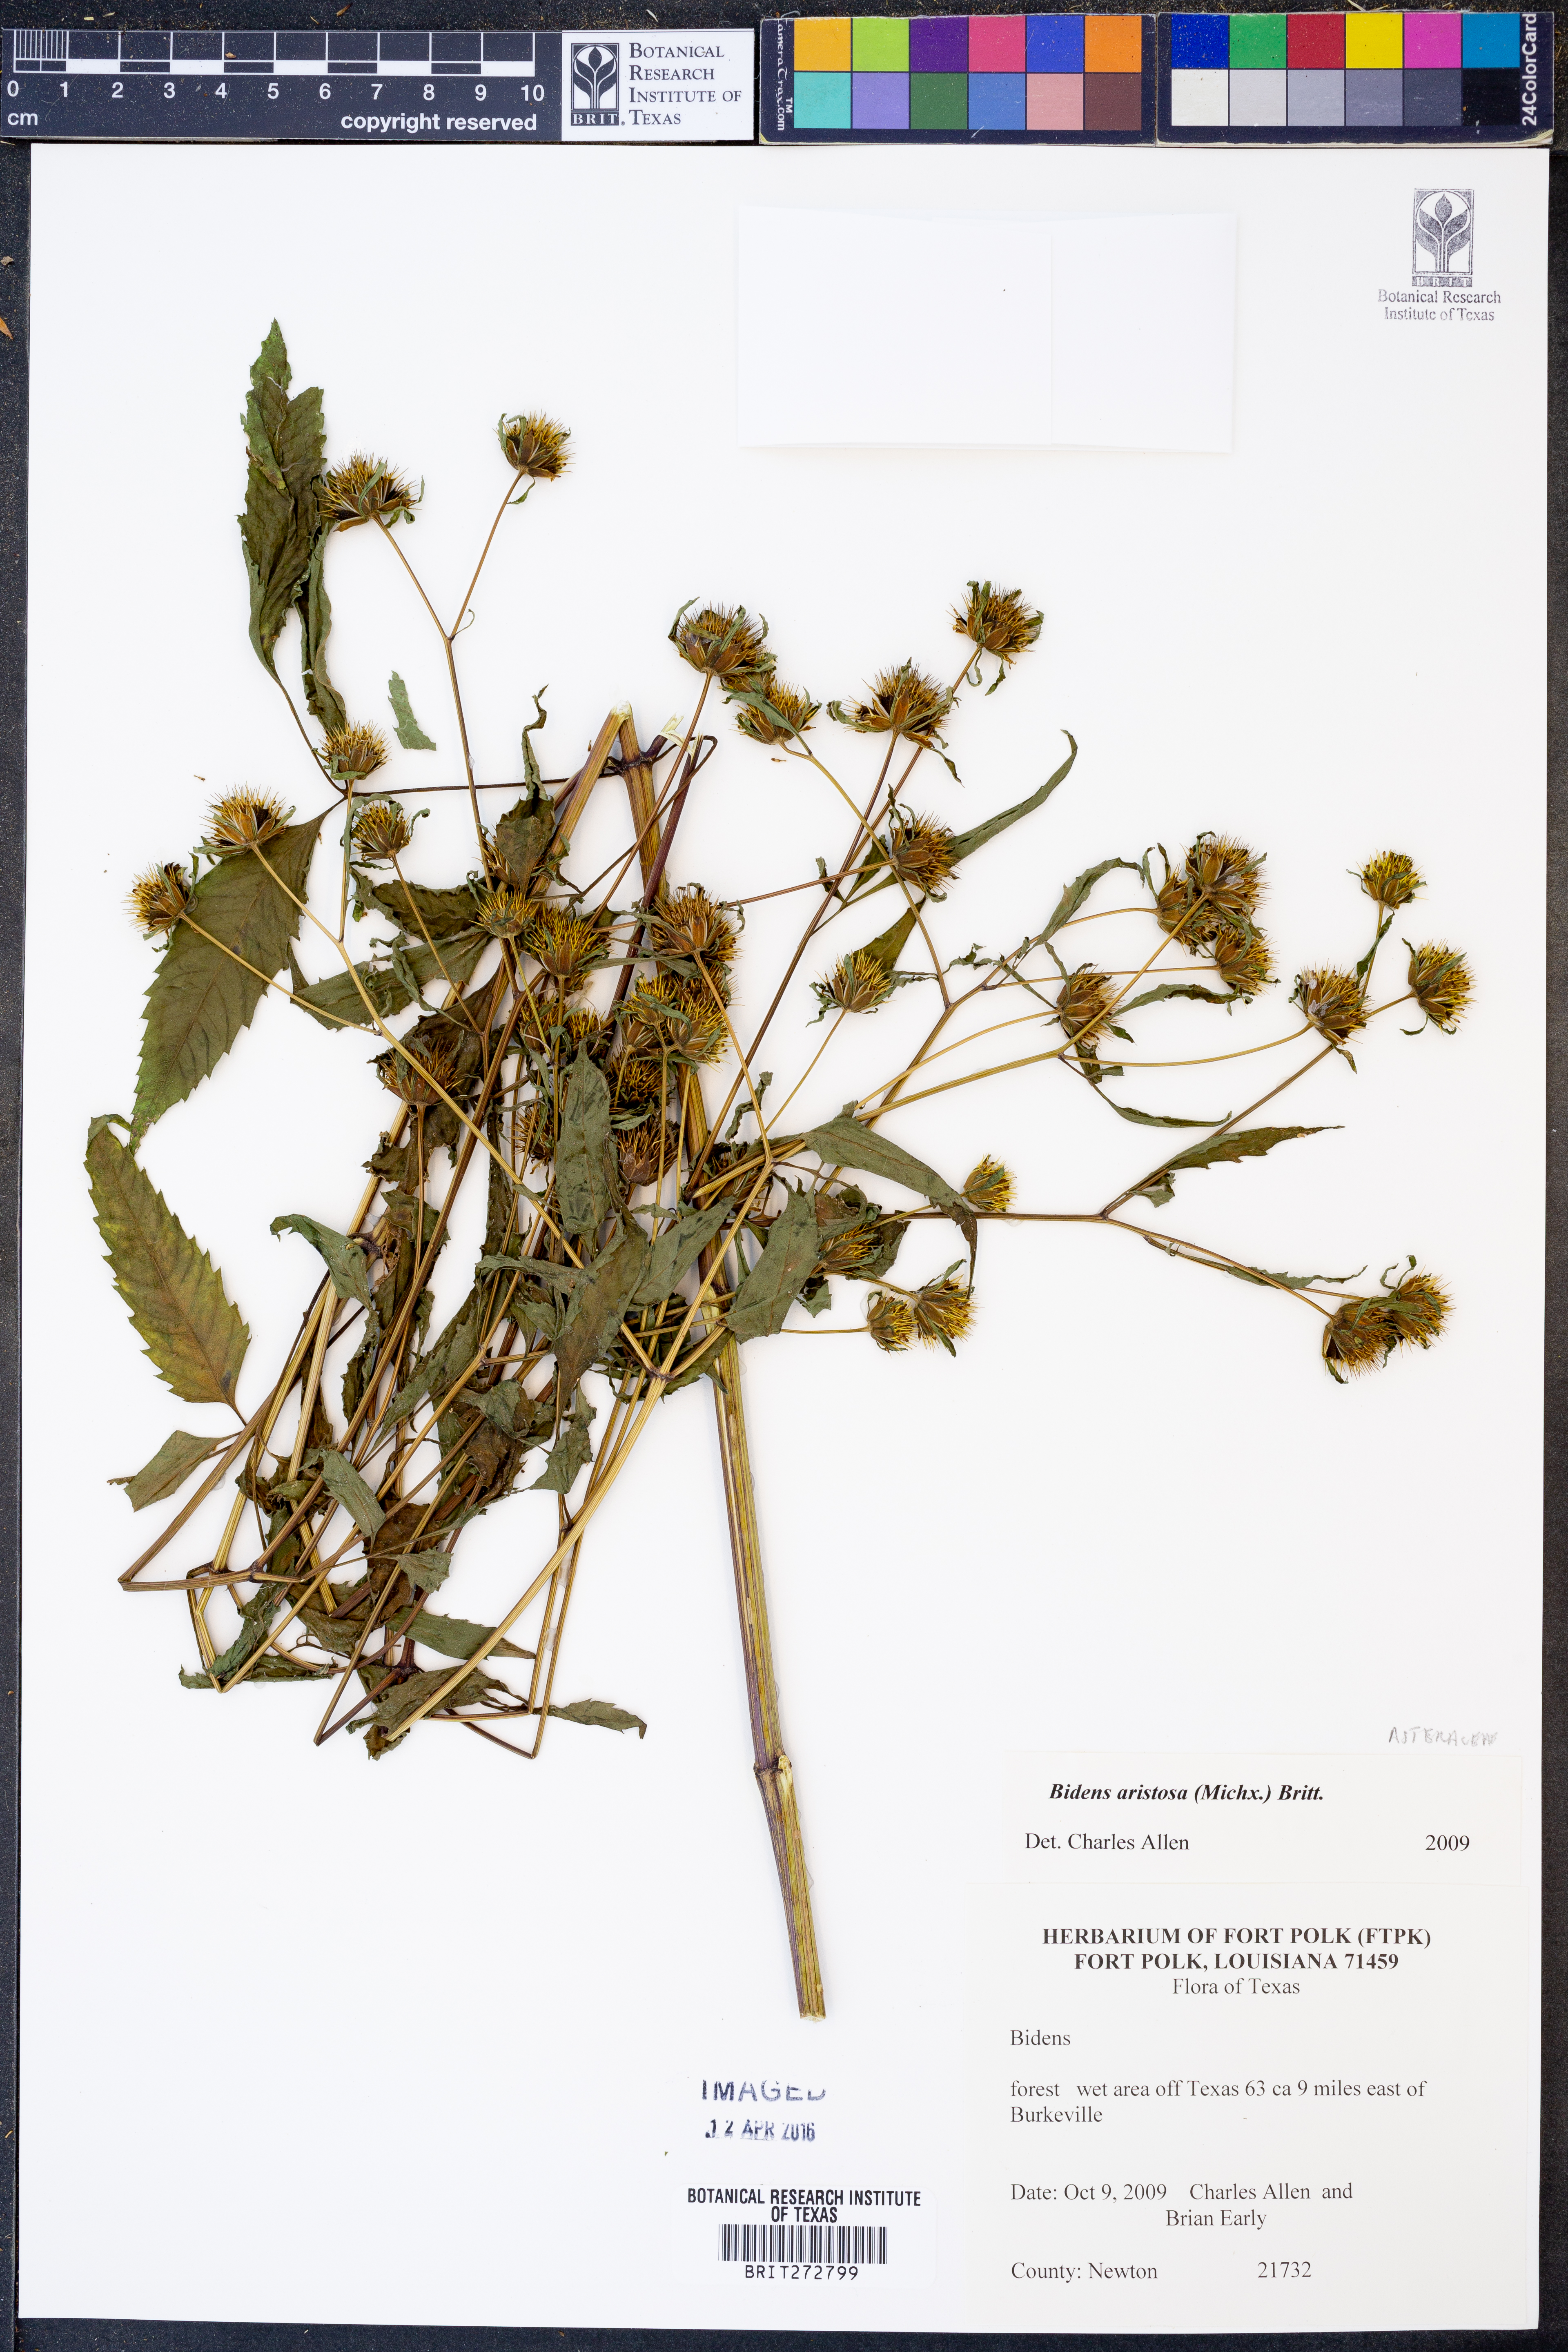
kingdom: Plantae
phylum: Tracheophyta
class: Magnoliopsida
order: Asterales
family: Asteraceae
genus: Bidens
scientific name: Bidens aristosa
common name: Western tickseed
